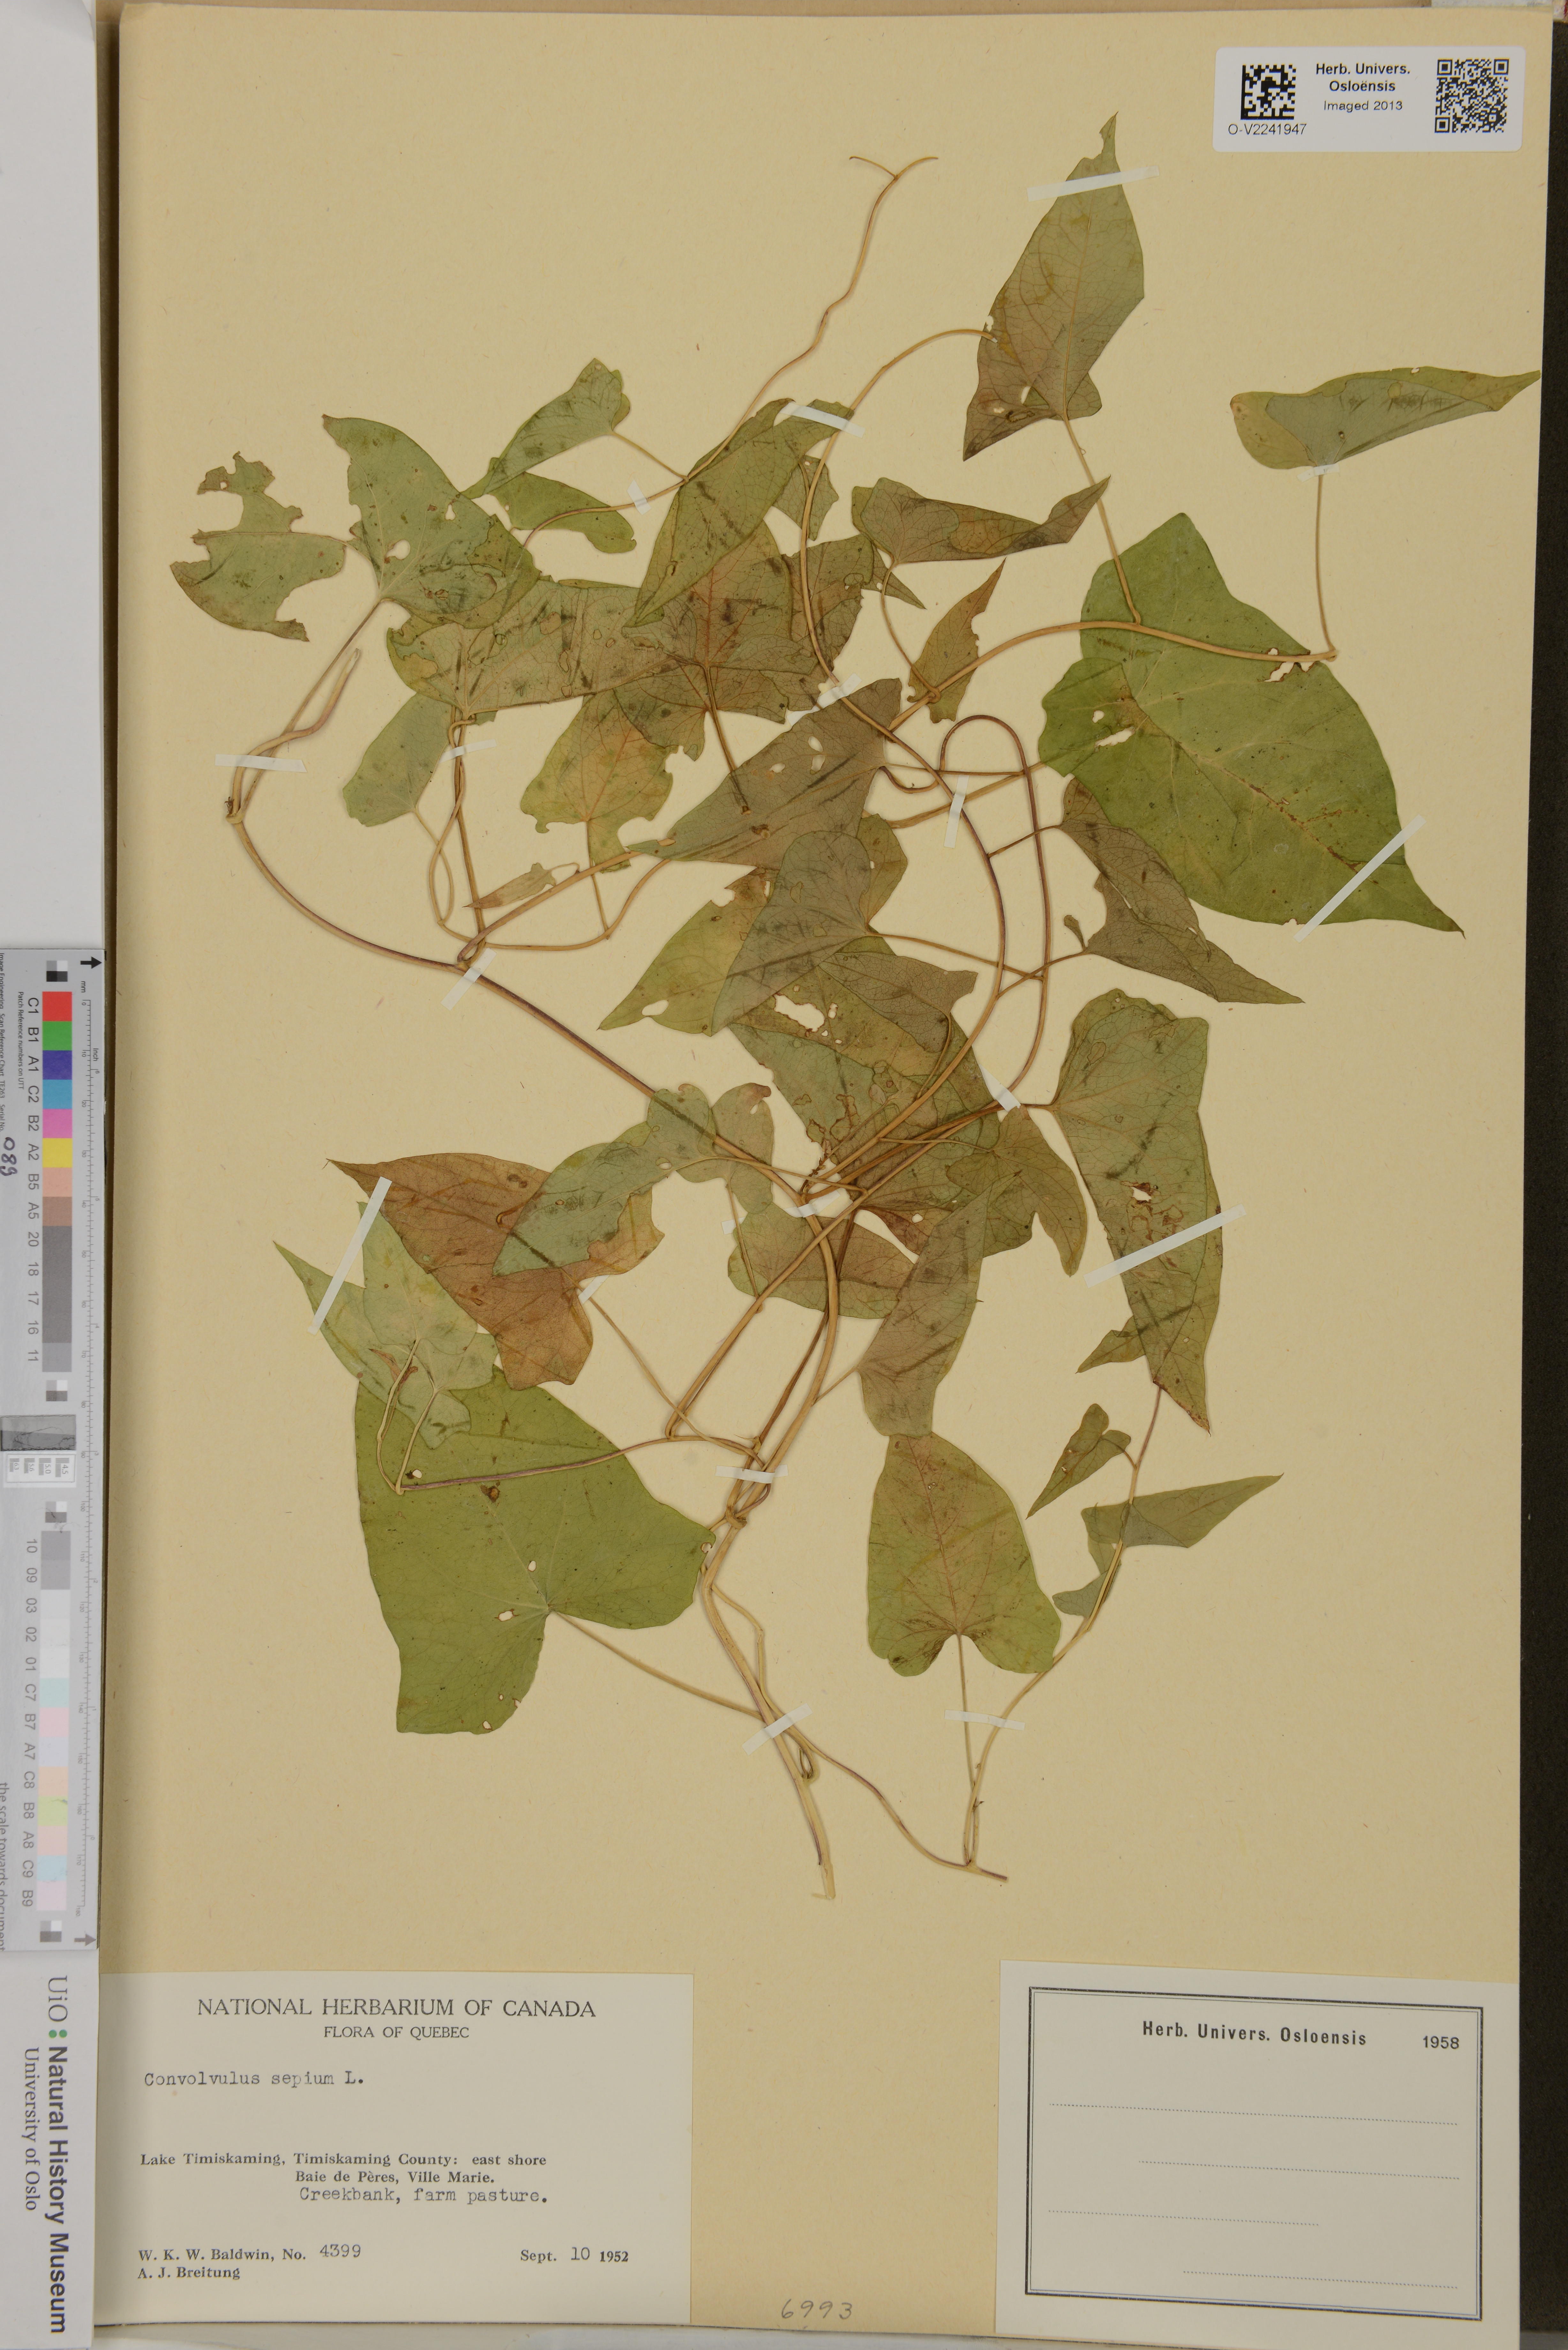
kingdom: Plantae
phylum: Tracheophyta
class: Magnoliopsida
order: Solanales
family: Convolvulaceae
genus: Calystegia
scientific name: Calystegia sepium
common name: Hedge bindweed
